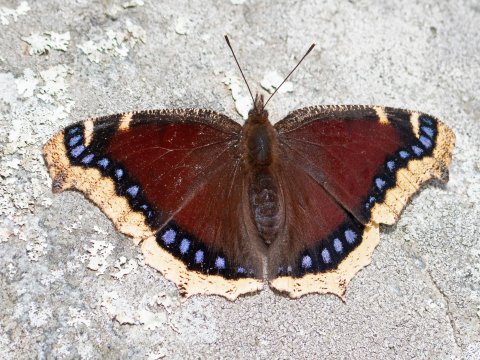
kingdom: Animalia
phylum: Arthropoda
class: Insecta
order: Lepidoptera
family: Nymphalidae
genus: Nymphalis
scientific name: Nymphalis antiopa
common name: Mourning Cloak
